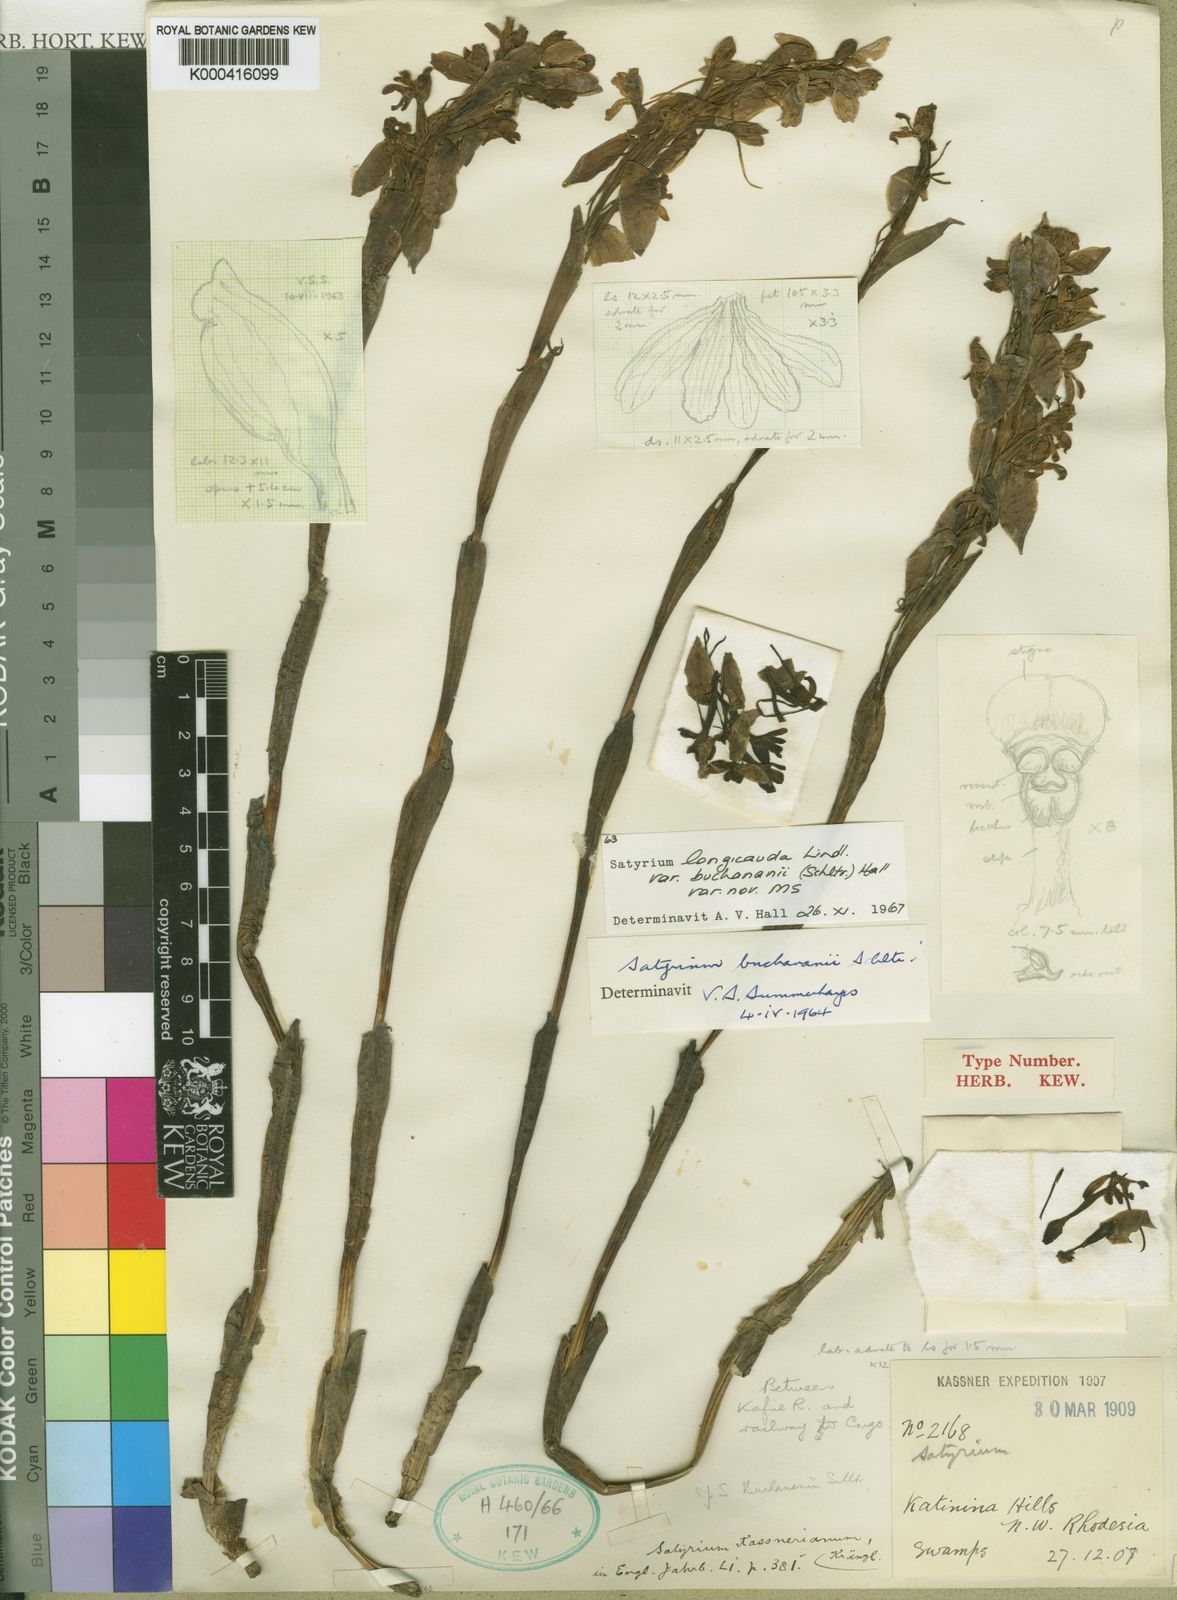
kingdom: Plantae
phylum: Tracheophyta
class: Liliopsida
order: Asparagales
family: Orchidaceae
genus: Satyrium
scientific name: Satyrium buchananii
